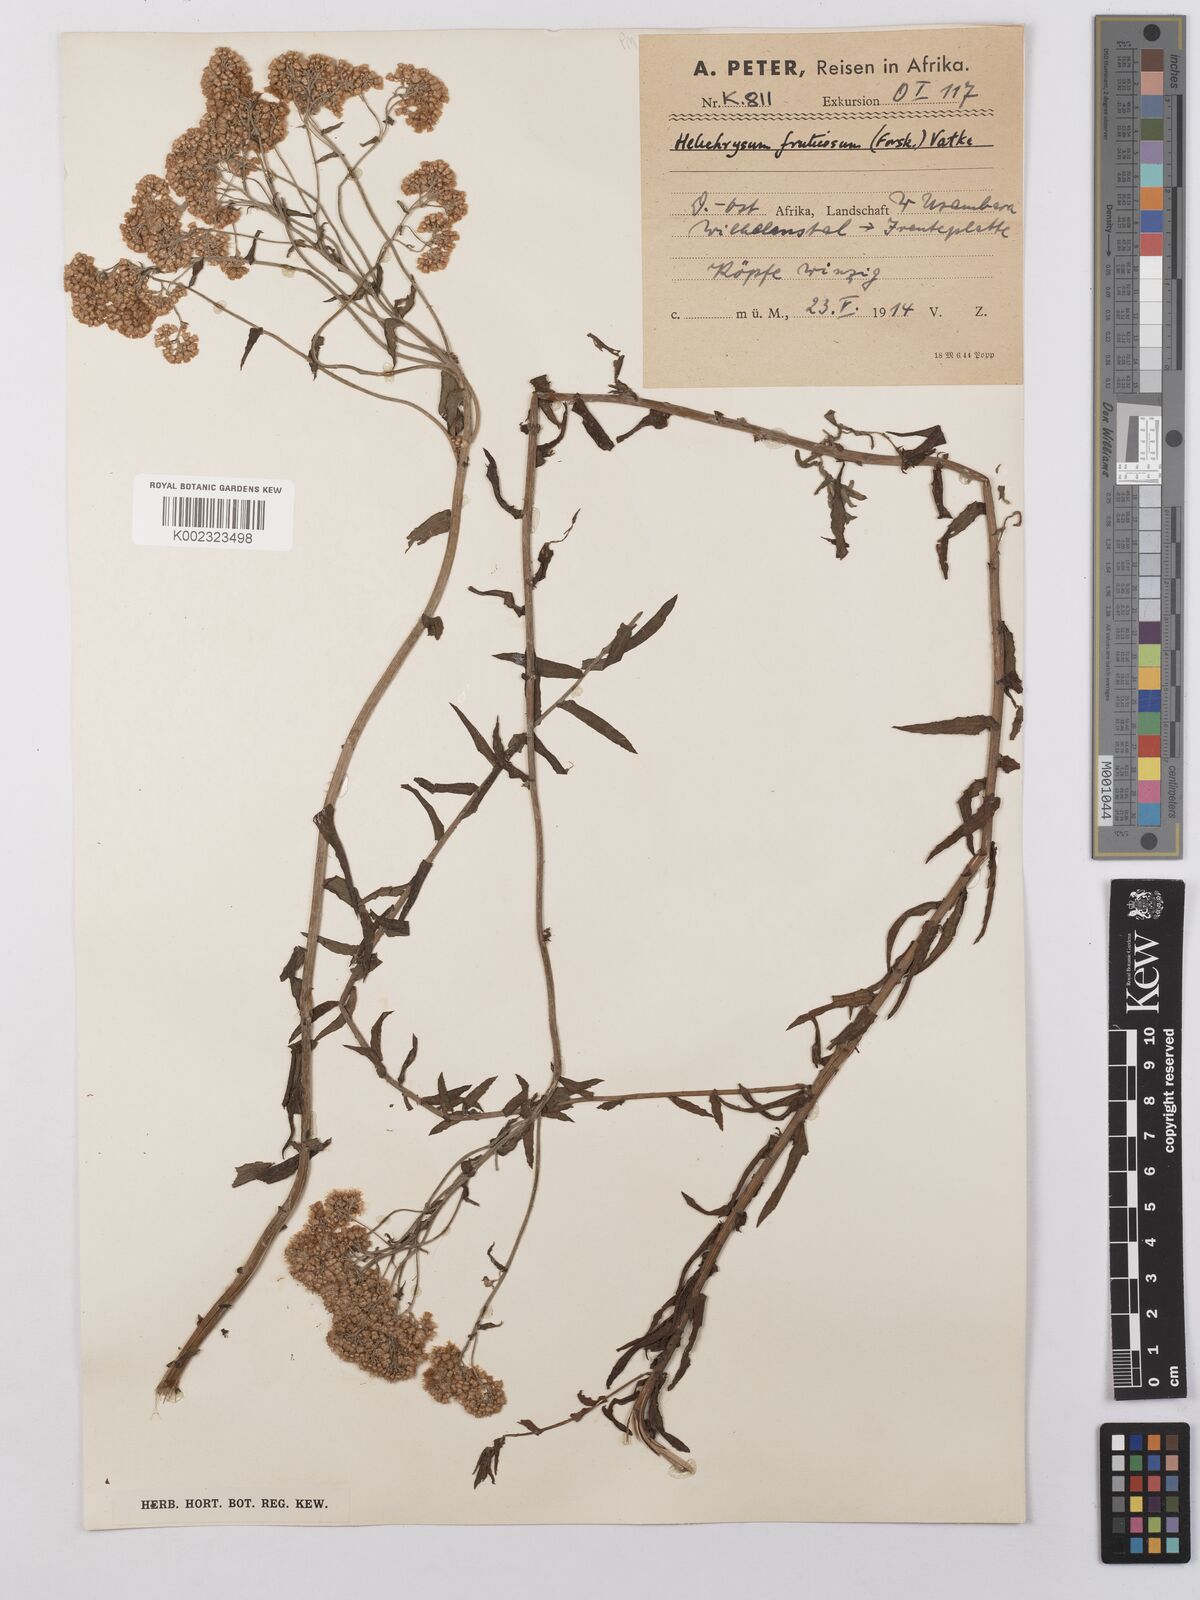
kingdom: Plantae
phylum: Tracheophyta
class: Magnoliopsida
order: Asterales
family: Asteraceae
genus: Helichrysum
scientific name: Helichrysum forskahlii
